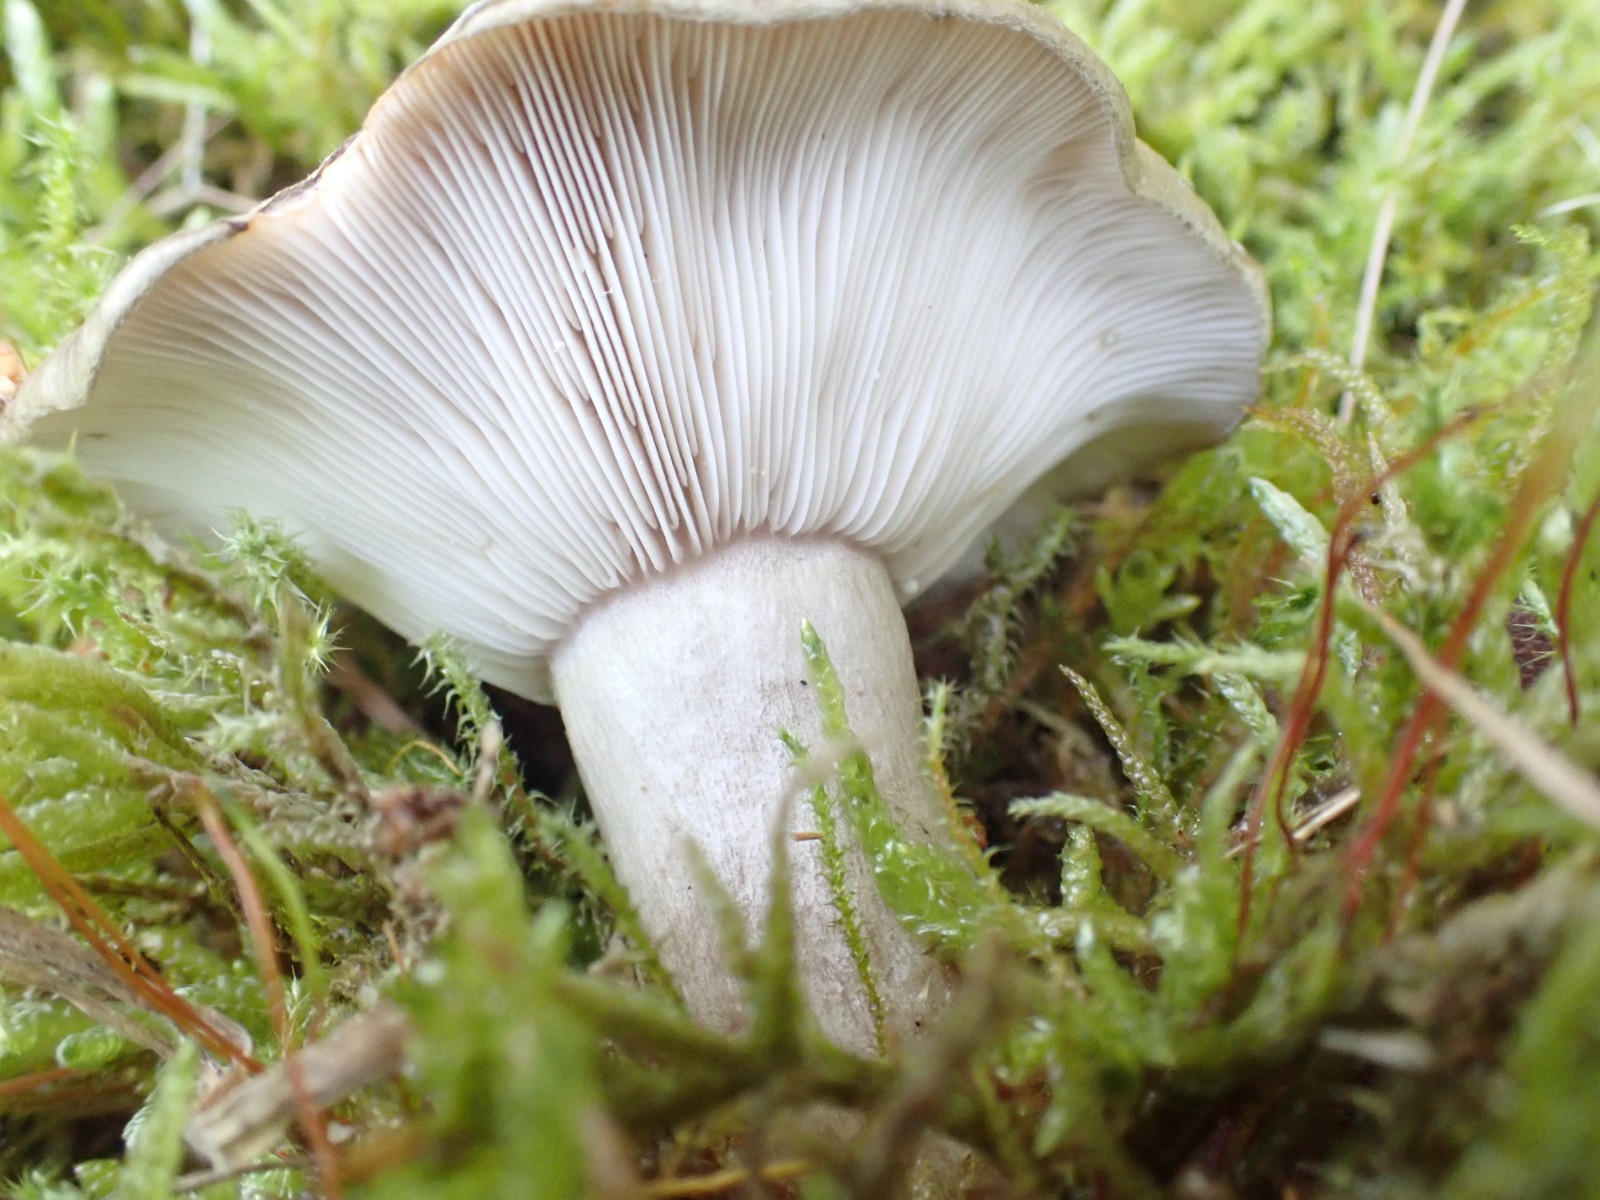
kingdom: Fungi
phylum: Basidiomycota
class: Agaricomycetes
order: Russulales
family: Russulaceae
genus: Lactarius
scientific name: Lactarius blennius
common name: dråbeplettet mælkehat
